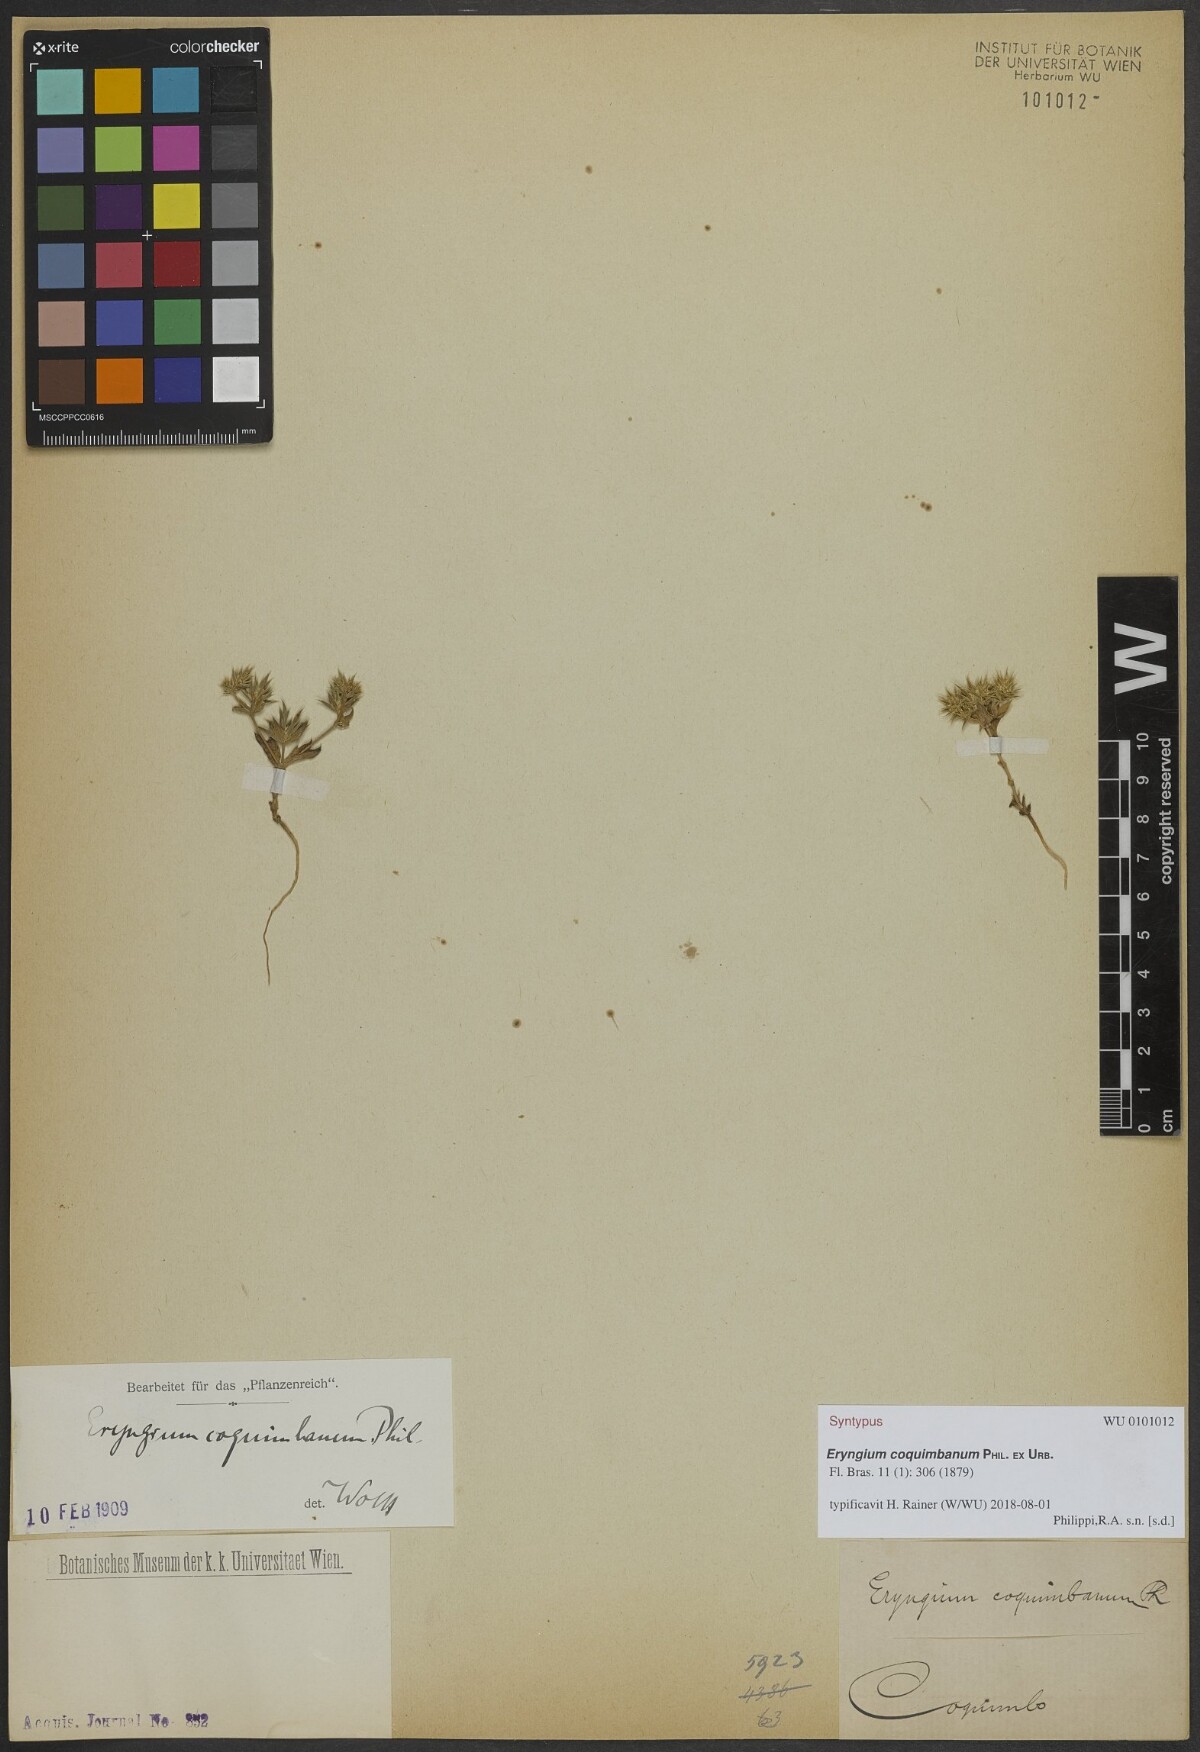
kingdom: Plantae
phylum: Tracheophyta
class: Magnoliopsida
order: Apiales
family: Apiaceae
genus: Eryngium
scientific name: Eryngium coquimbanum
